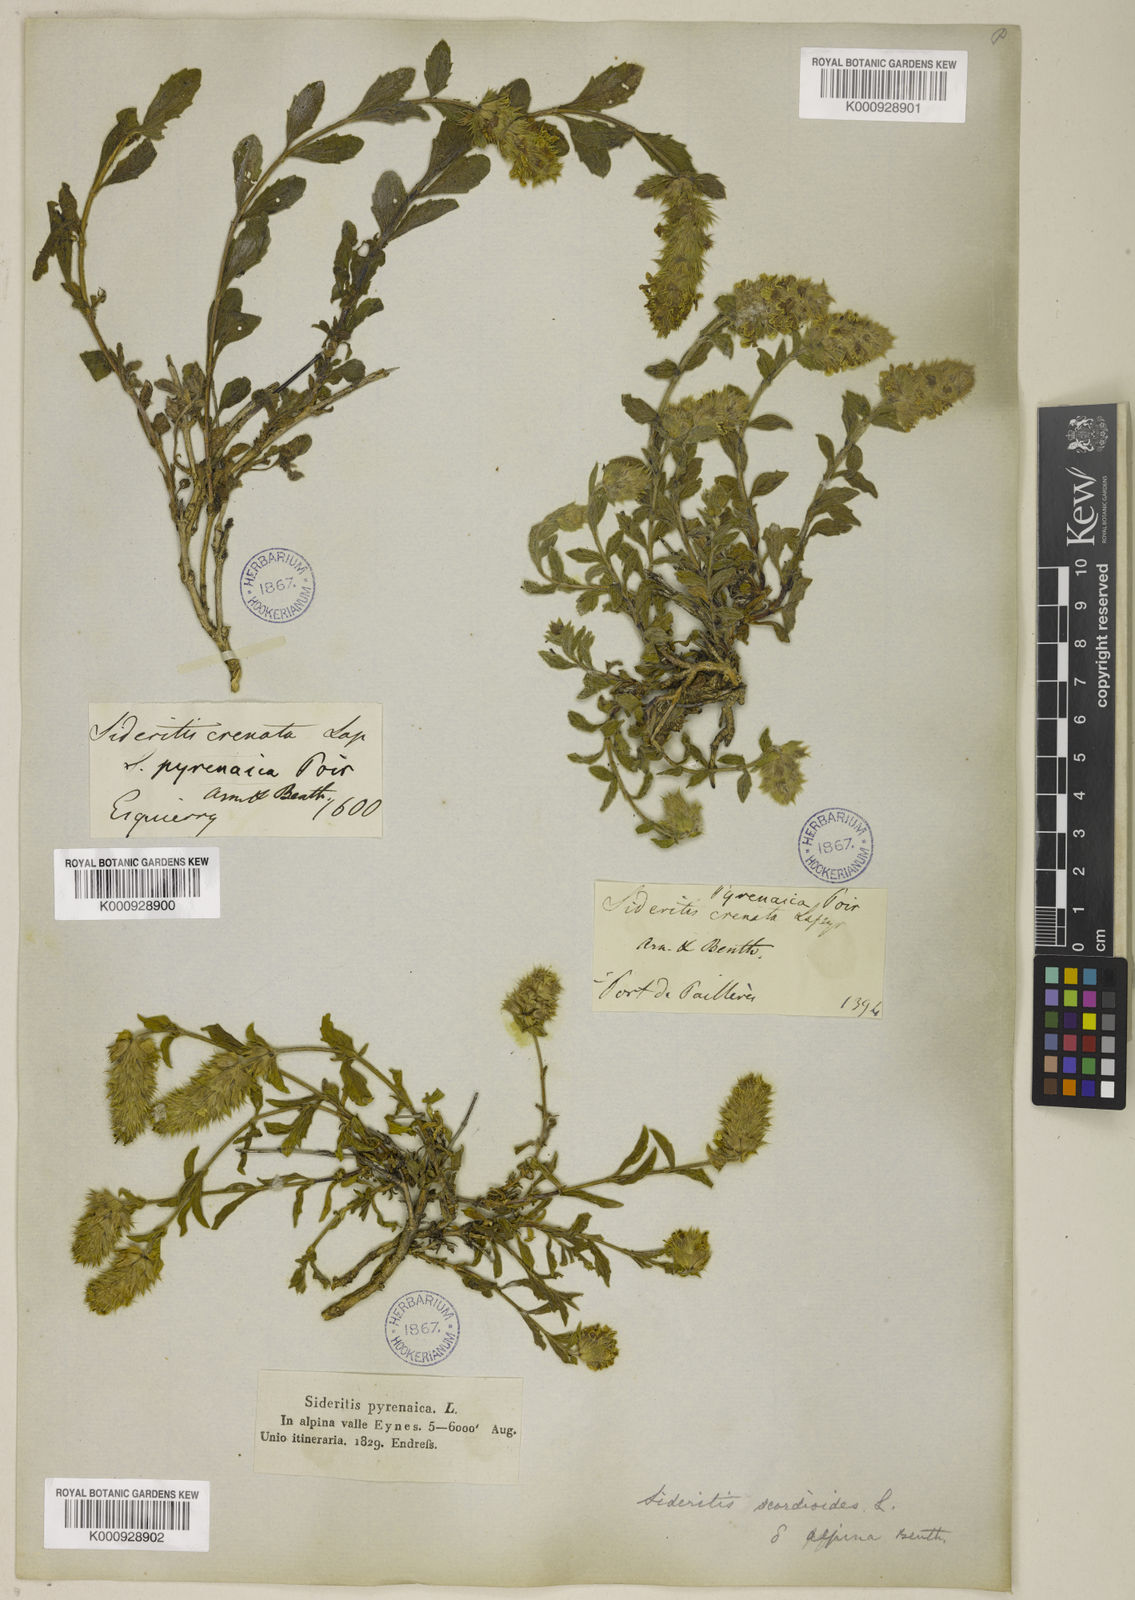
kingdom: Plantae
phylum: Tracheophyta
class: Magnoliopsida
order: Lamiales
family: Lamiaceae
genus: Sideritis
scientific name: Sideritis hyssopifolia
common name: Mountain tea
